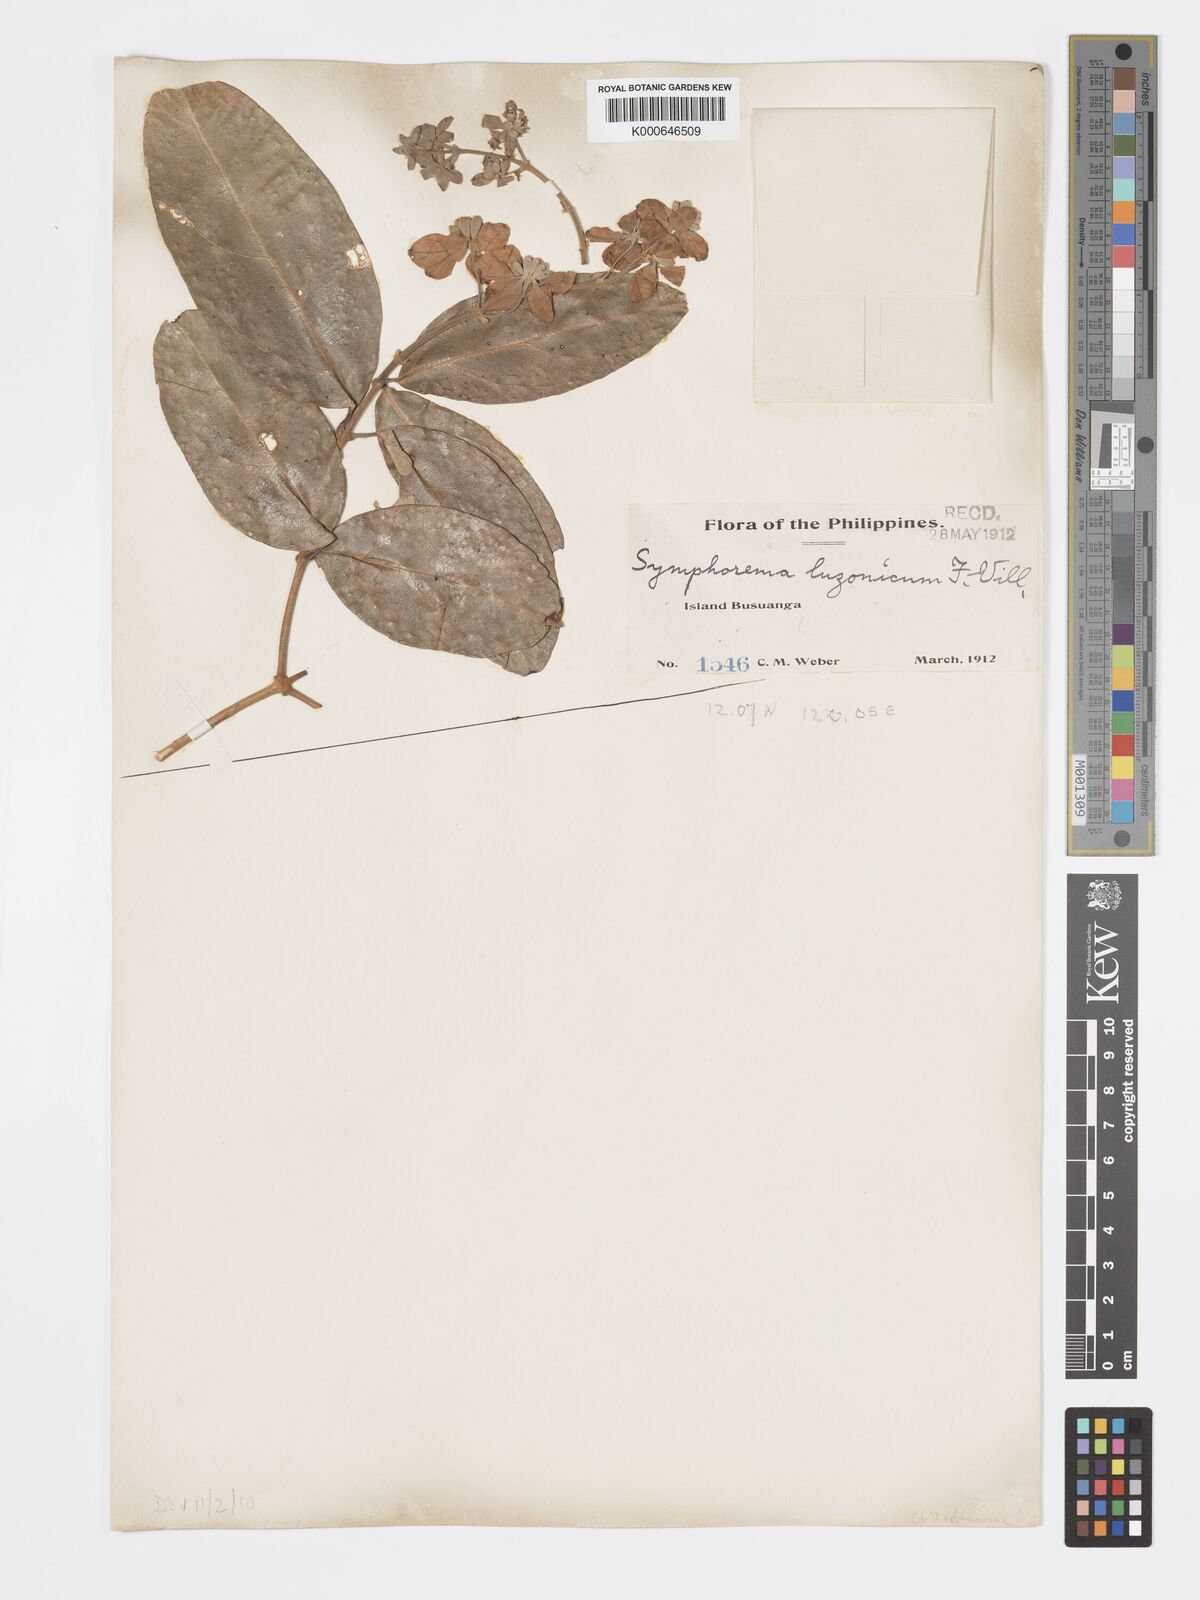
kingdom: Plantae
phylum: Tracheophyta
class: Magnoliopsida
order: Lamiales
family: Lamiaceae
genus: Symphorema
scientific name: Symphorema luzonicum
